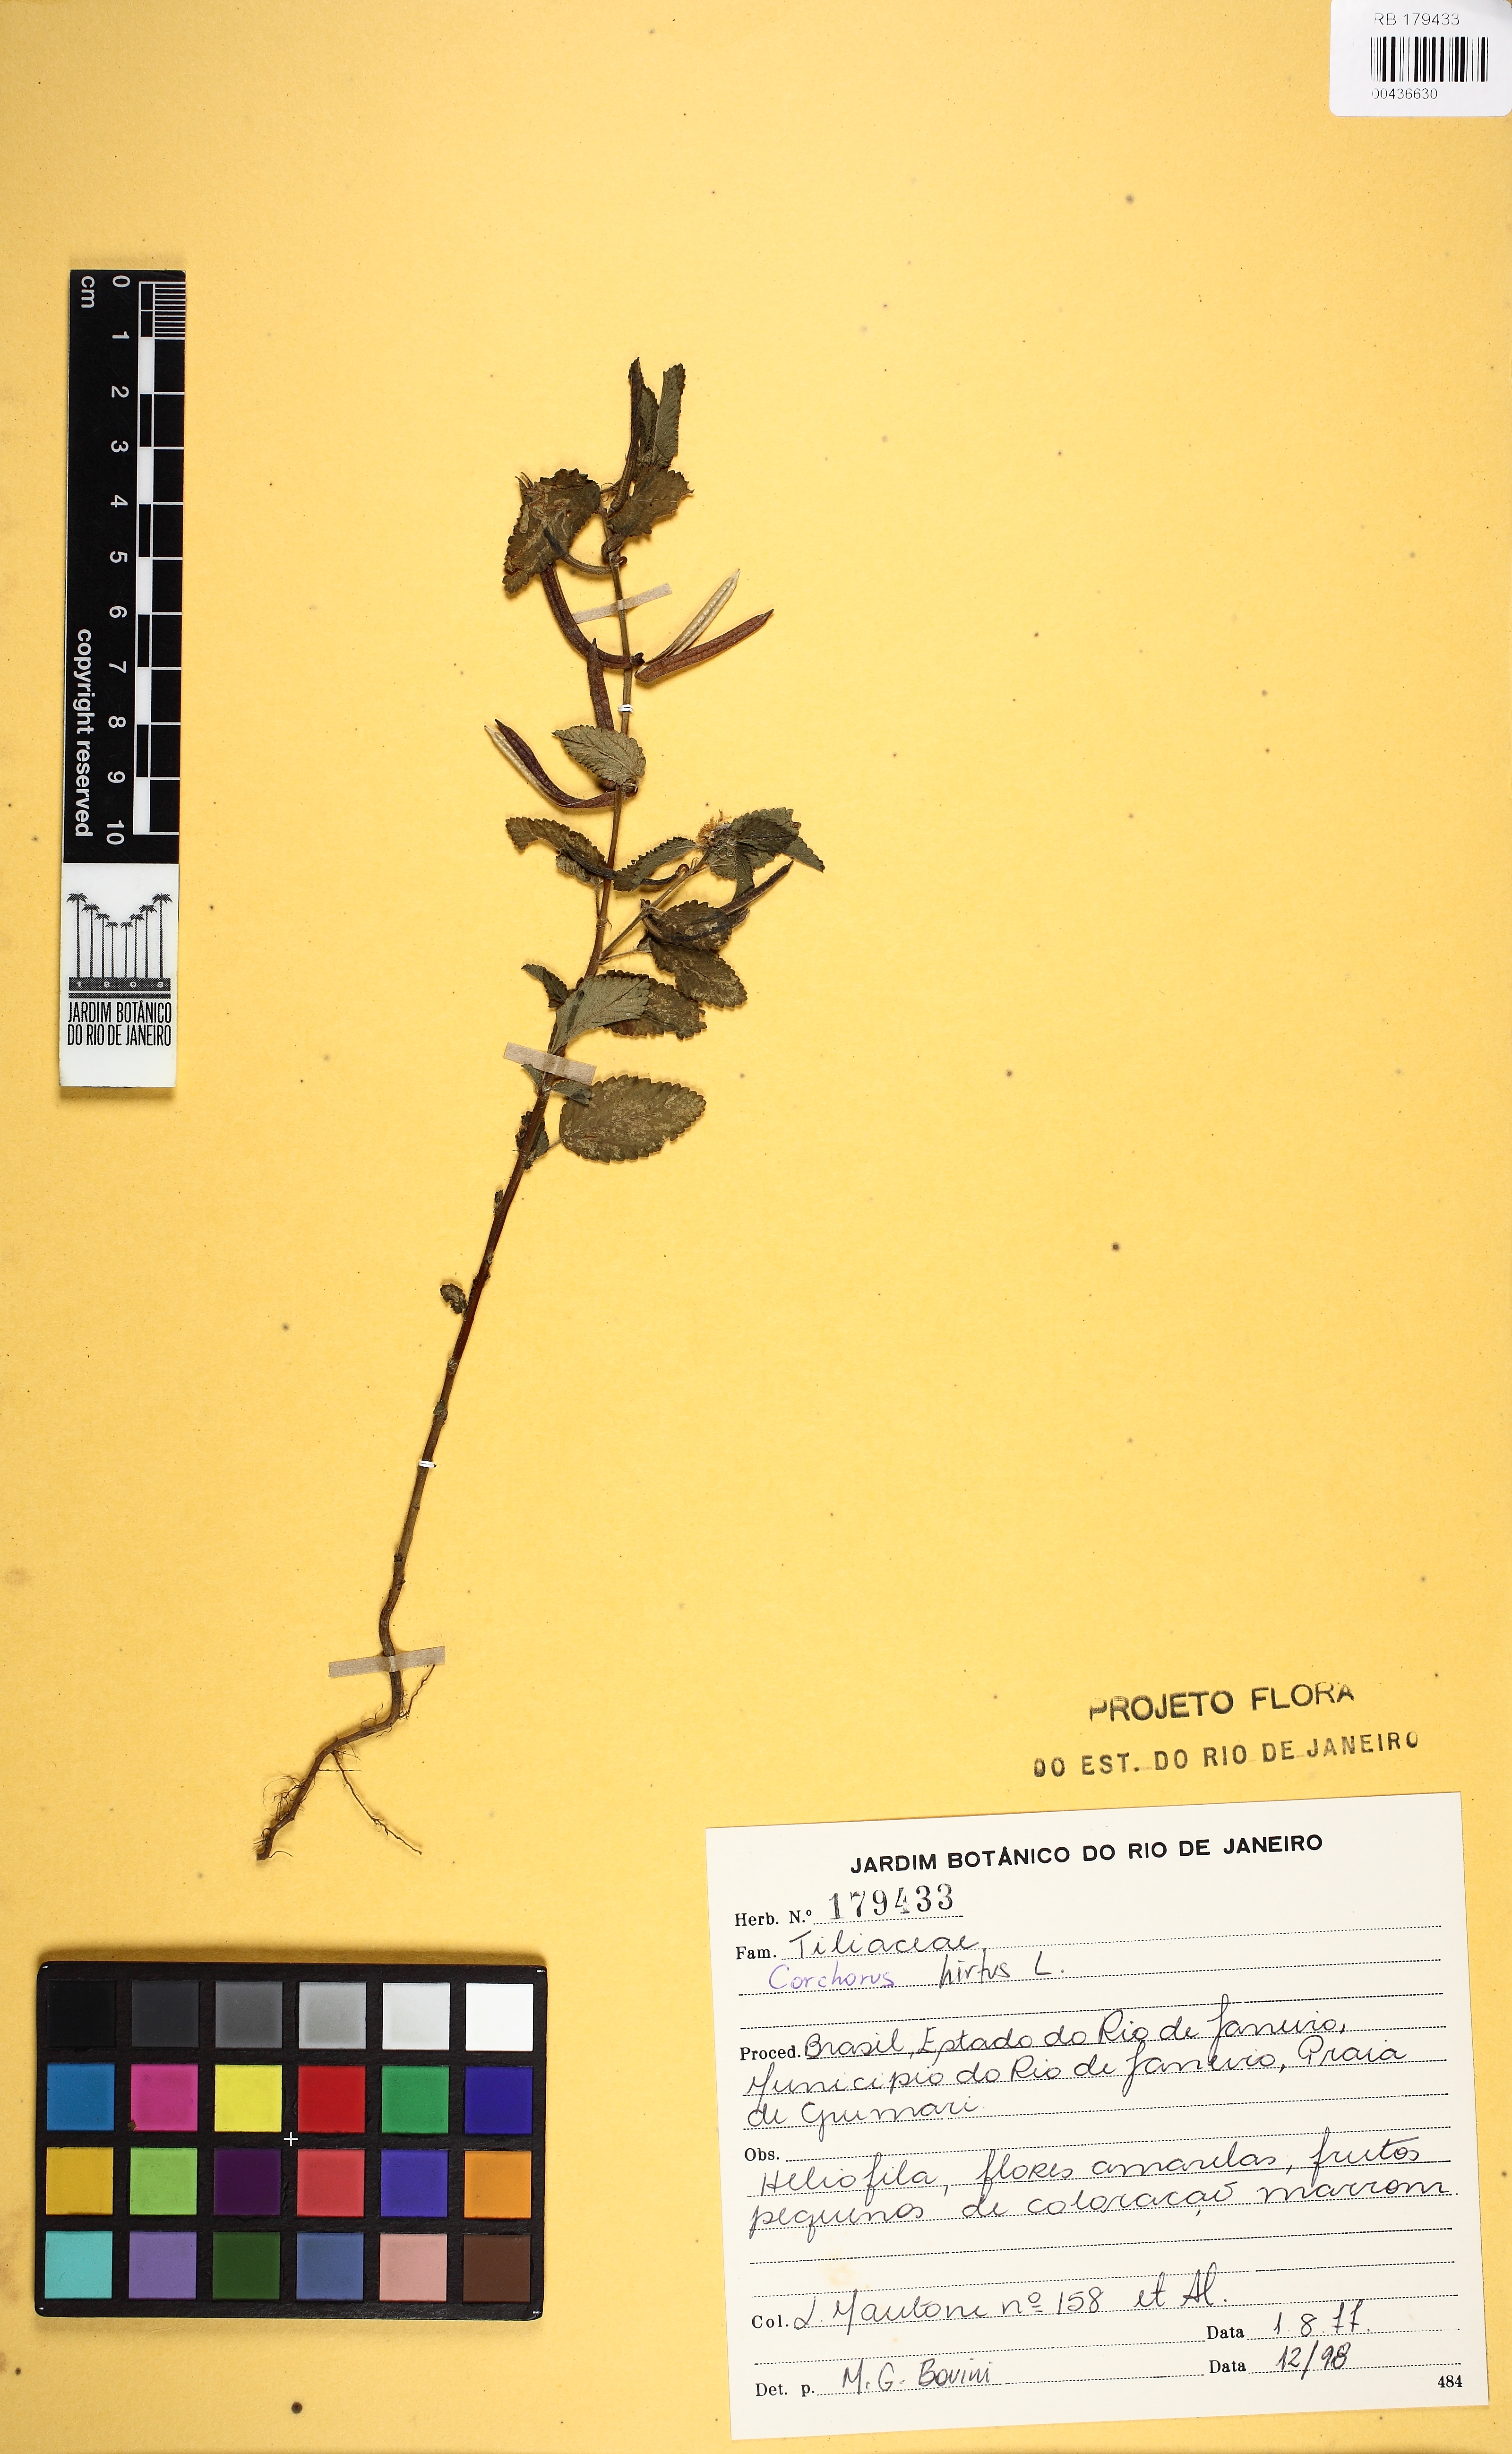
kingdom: Plantae
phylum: Tracheophyta
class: Magnoliopsida
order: Malvales
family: Malvaceae
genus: Corchorus
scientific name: Corchorus hirsutus
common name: Jackswitch
